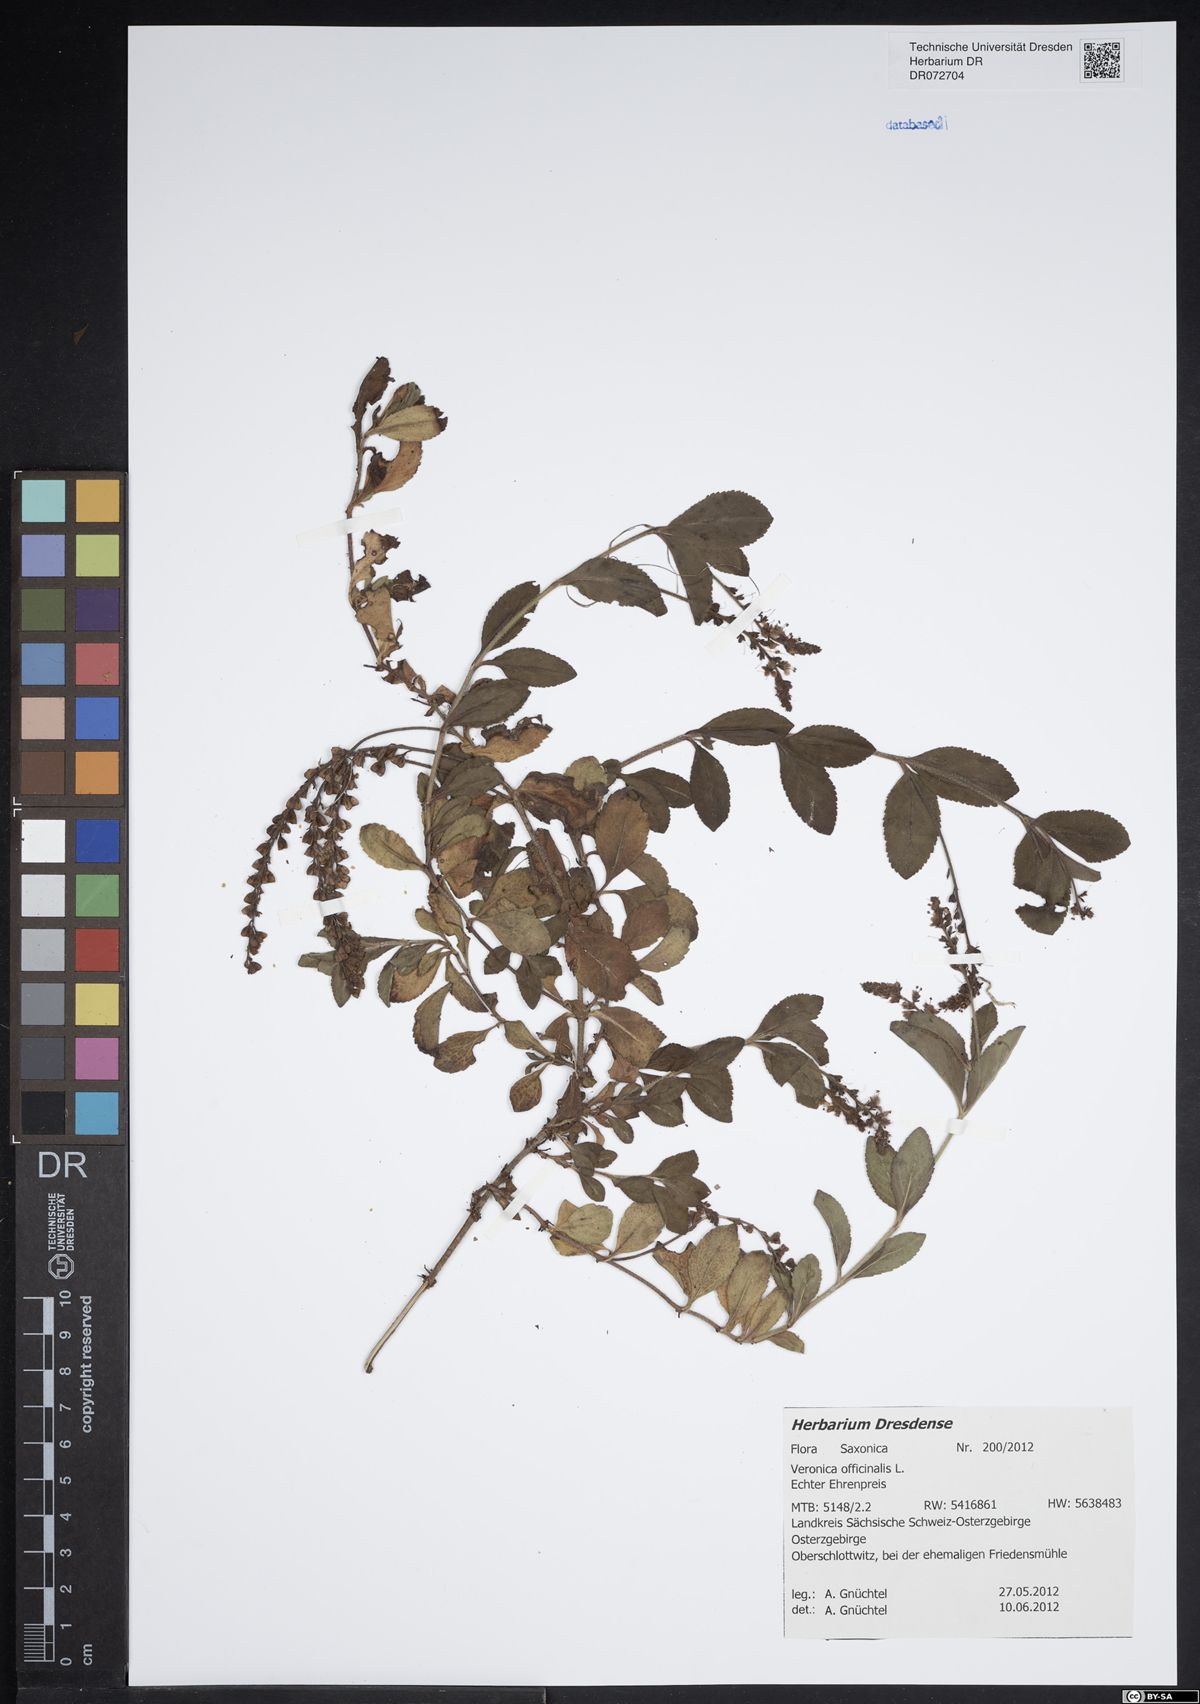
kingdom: Plantae
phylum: Tracheophyta
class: Magnoliopsida
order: Lamiales
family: Plantaginaceae
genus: Veronica
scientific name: Veronica officinalis
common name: Common speedwell
